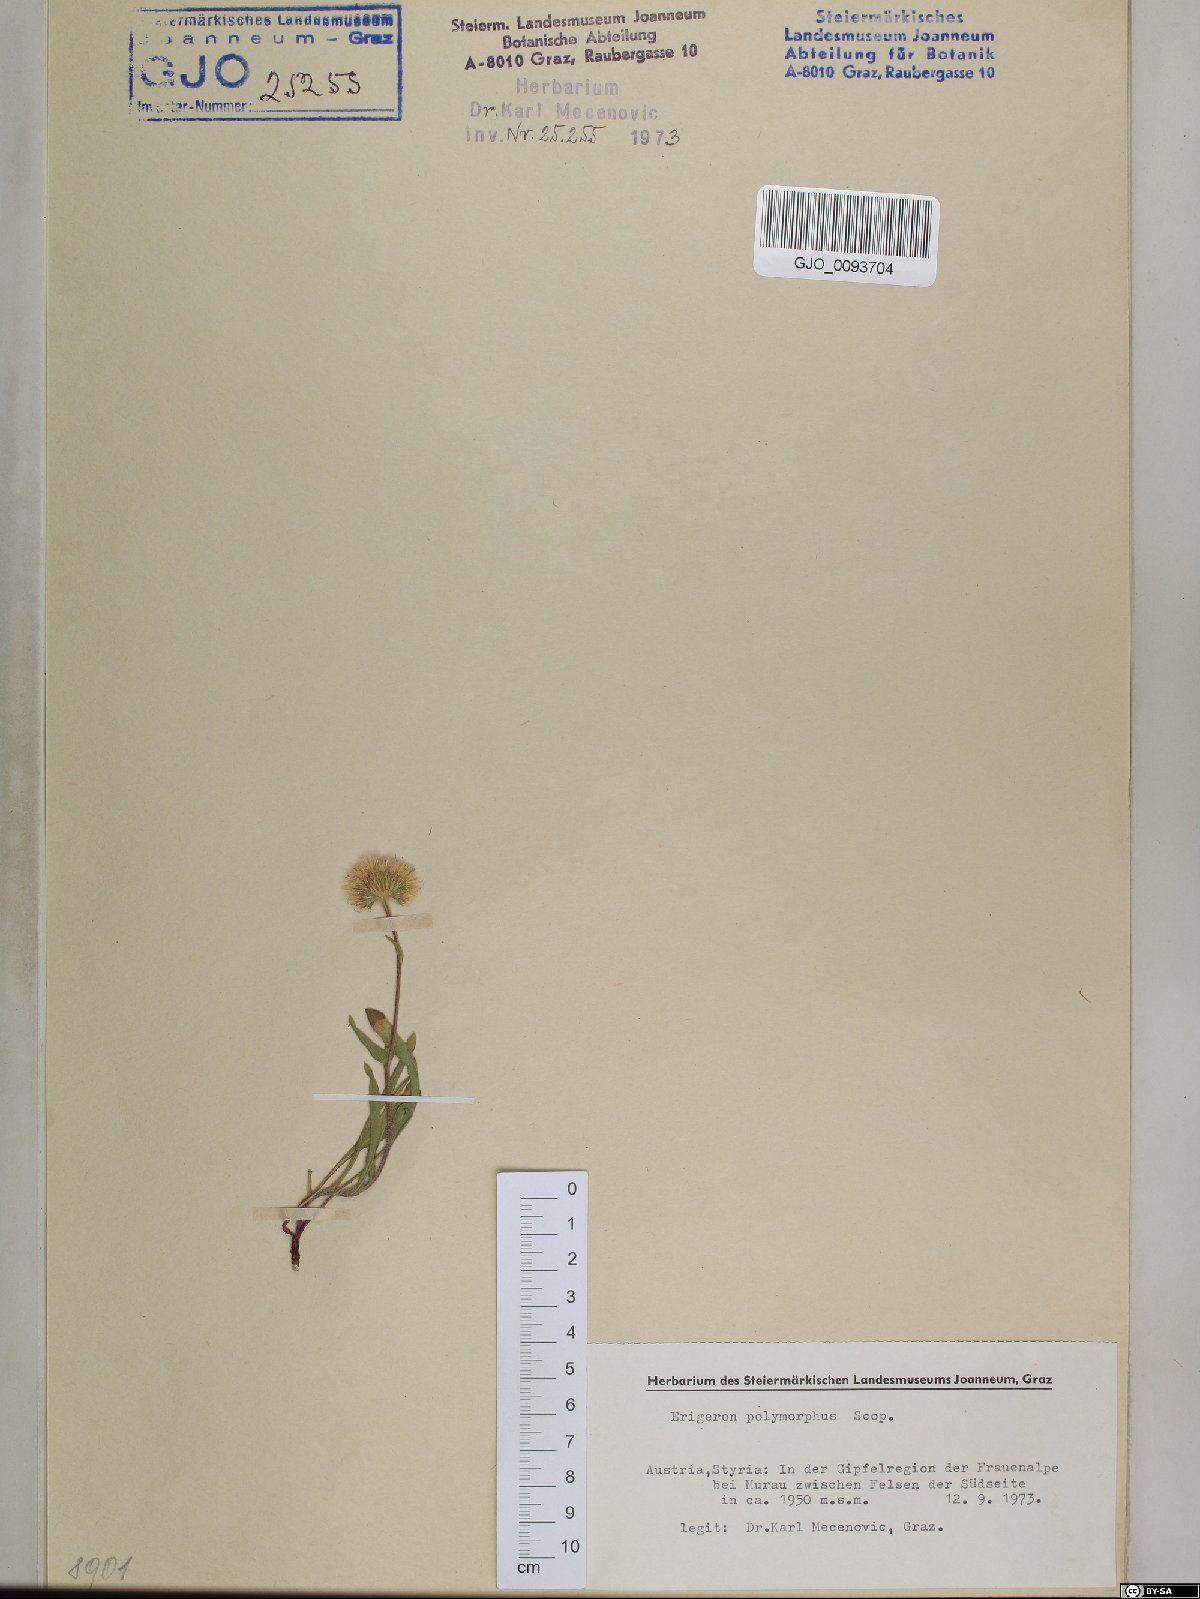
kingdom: Plantae
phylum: Tracheophyta
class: Magnoliopsida
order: Asterales
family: Asteraceae
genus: Erigeron
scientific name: Erigeron alpinus
